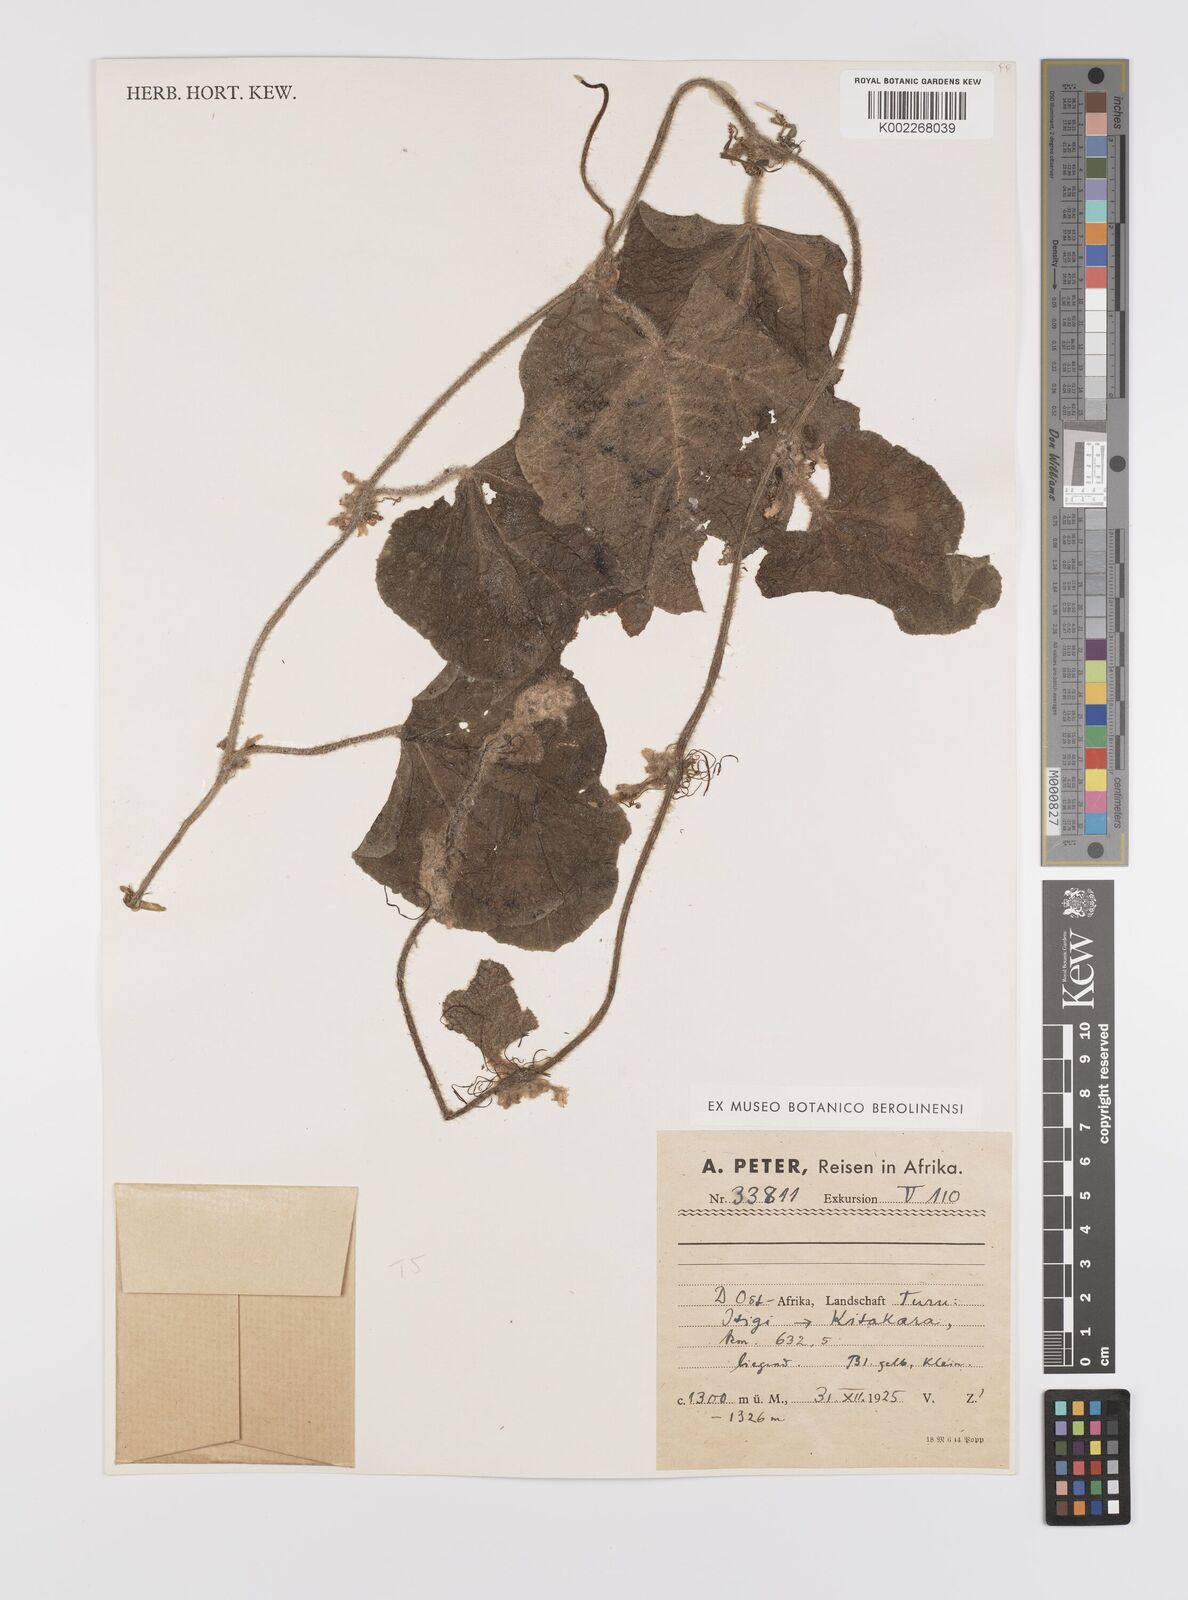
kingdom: Plantae
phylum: Tracheophyta
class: Magnoliopsida
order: Cucurbitales
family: Cucurbitaceae
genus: Cucumis
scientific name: Cucumis hirsutus
